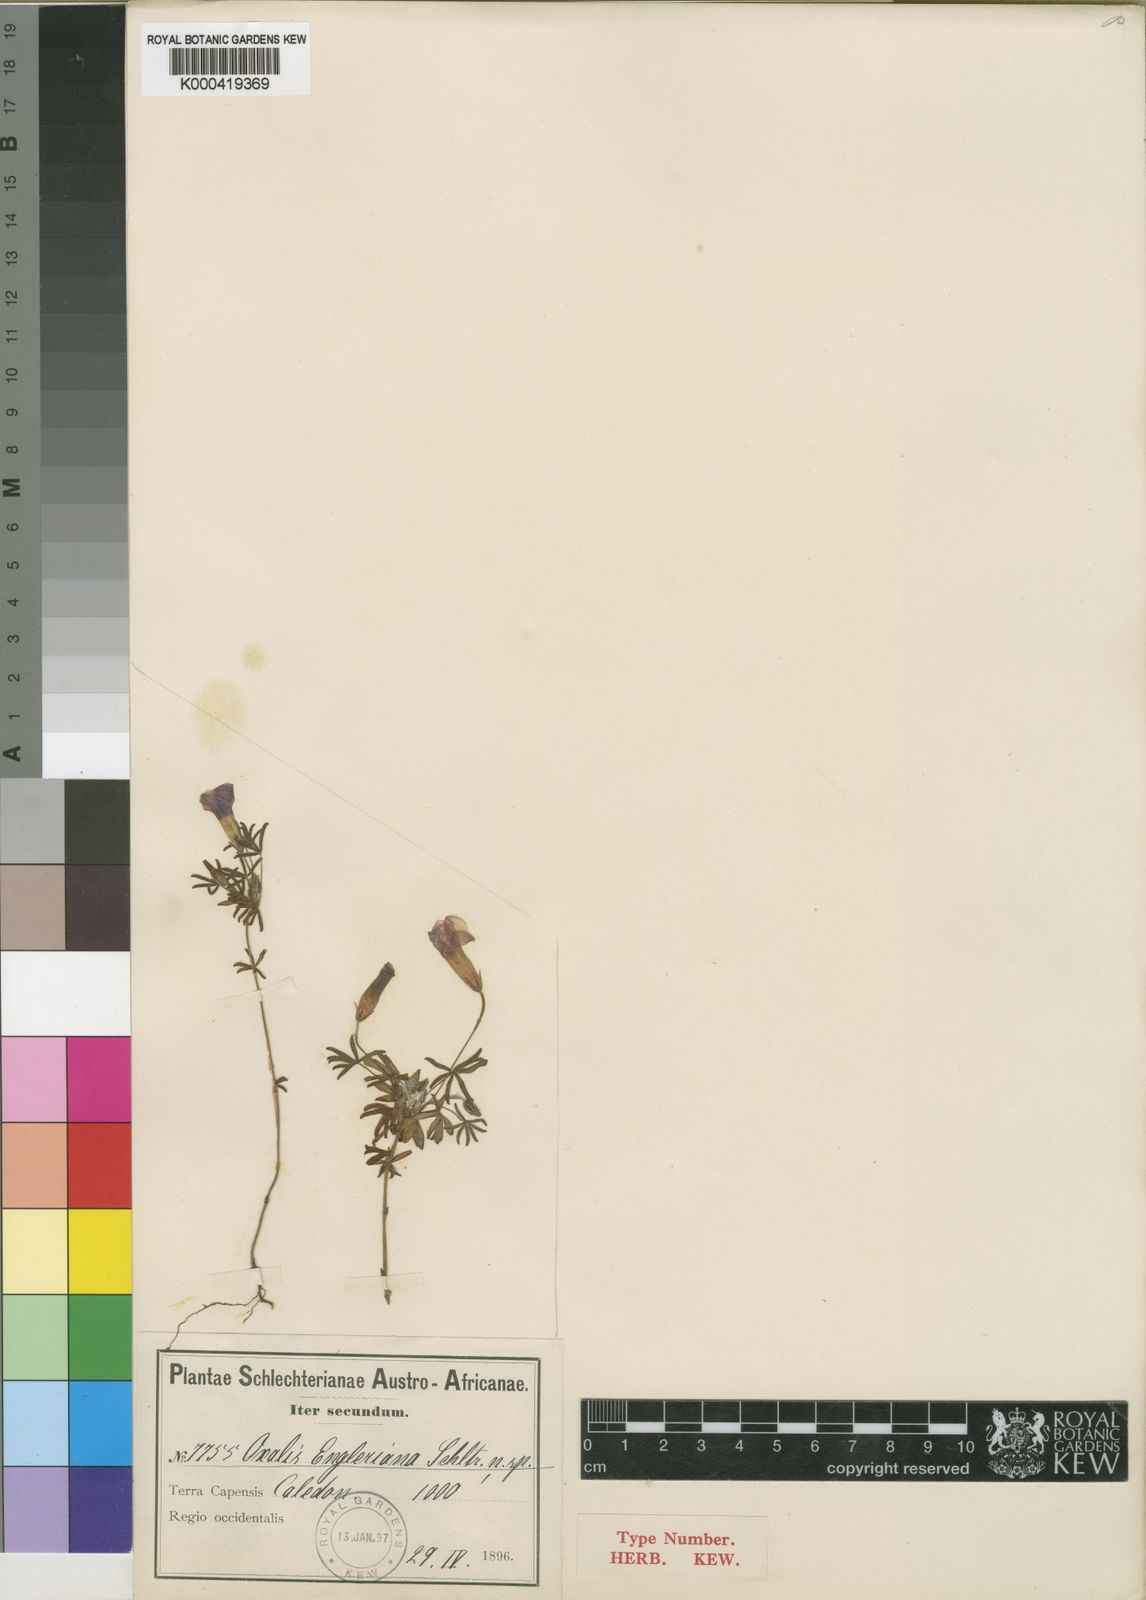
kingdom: Plantae
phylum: Tracheophyta
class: Magnoliopsida
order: Oxalidales
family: Oxalidaceae
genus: Oxalis
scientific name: Oxalis engleriana
